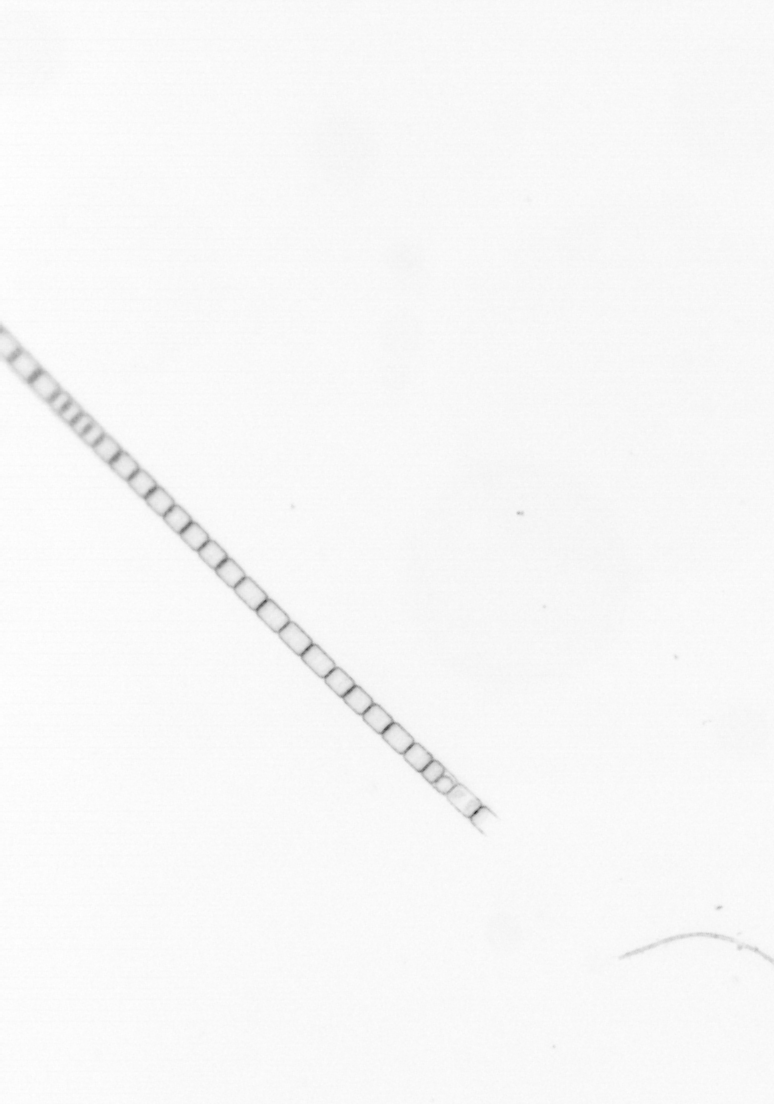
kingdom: Chromista
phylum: Ochrophyta
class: Bacillariophyceae
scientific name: Bacillariophyceae
